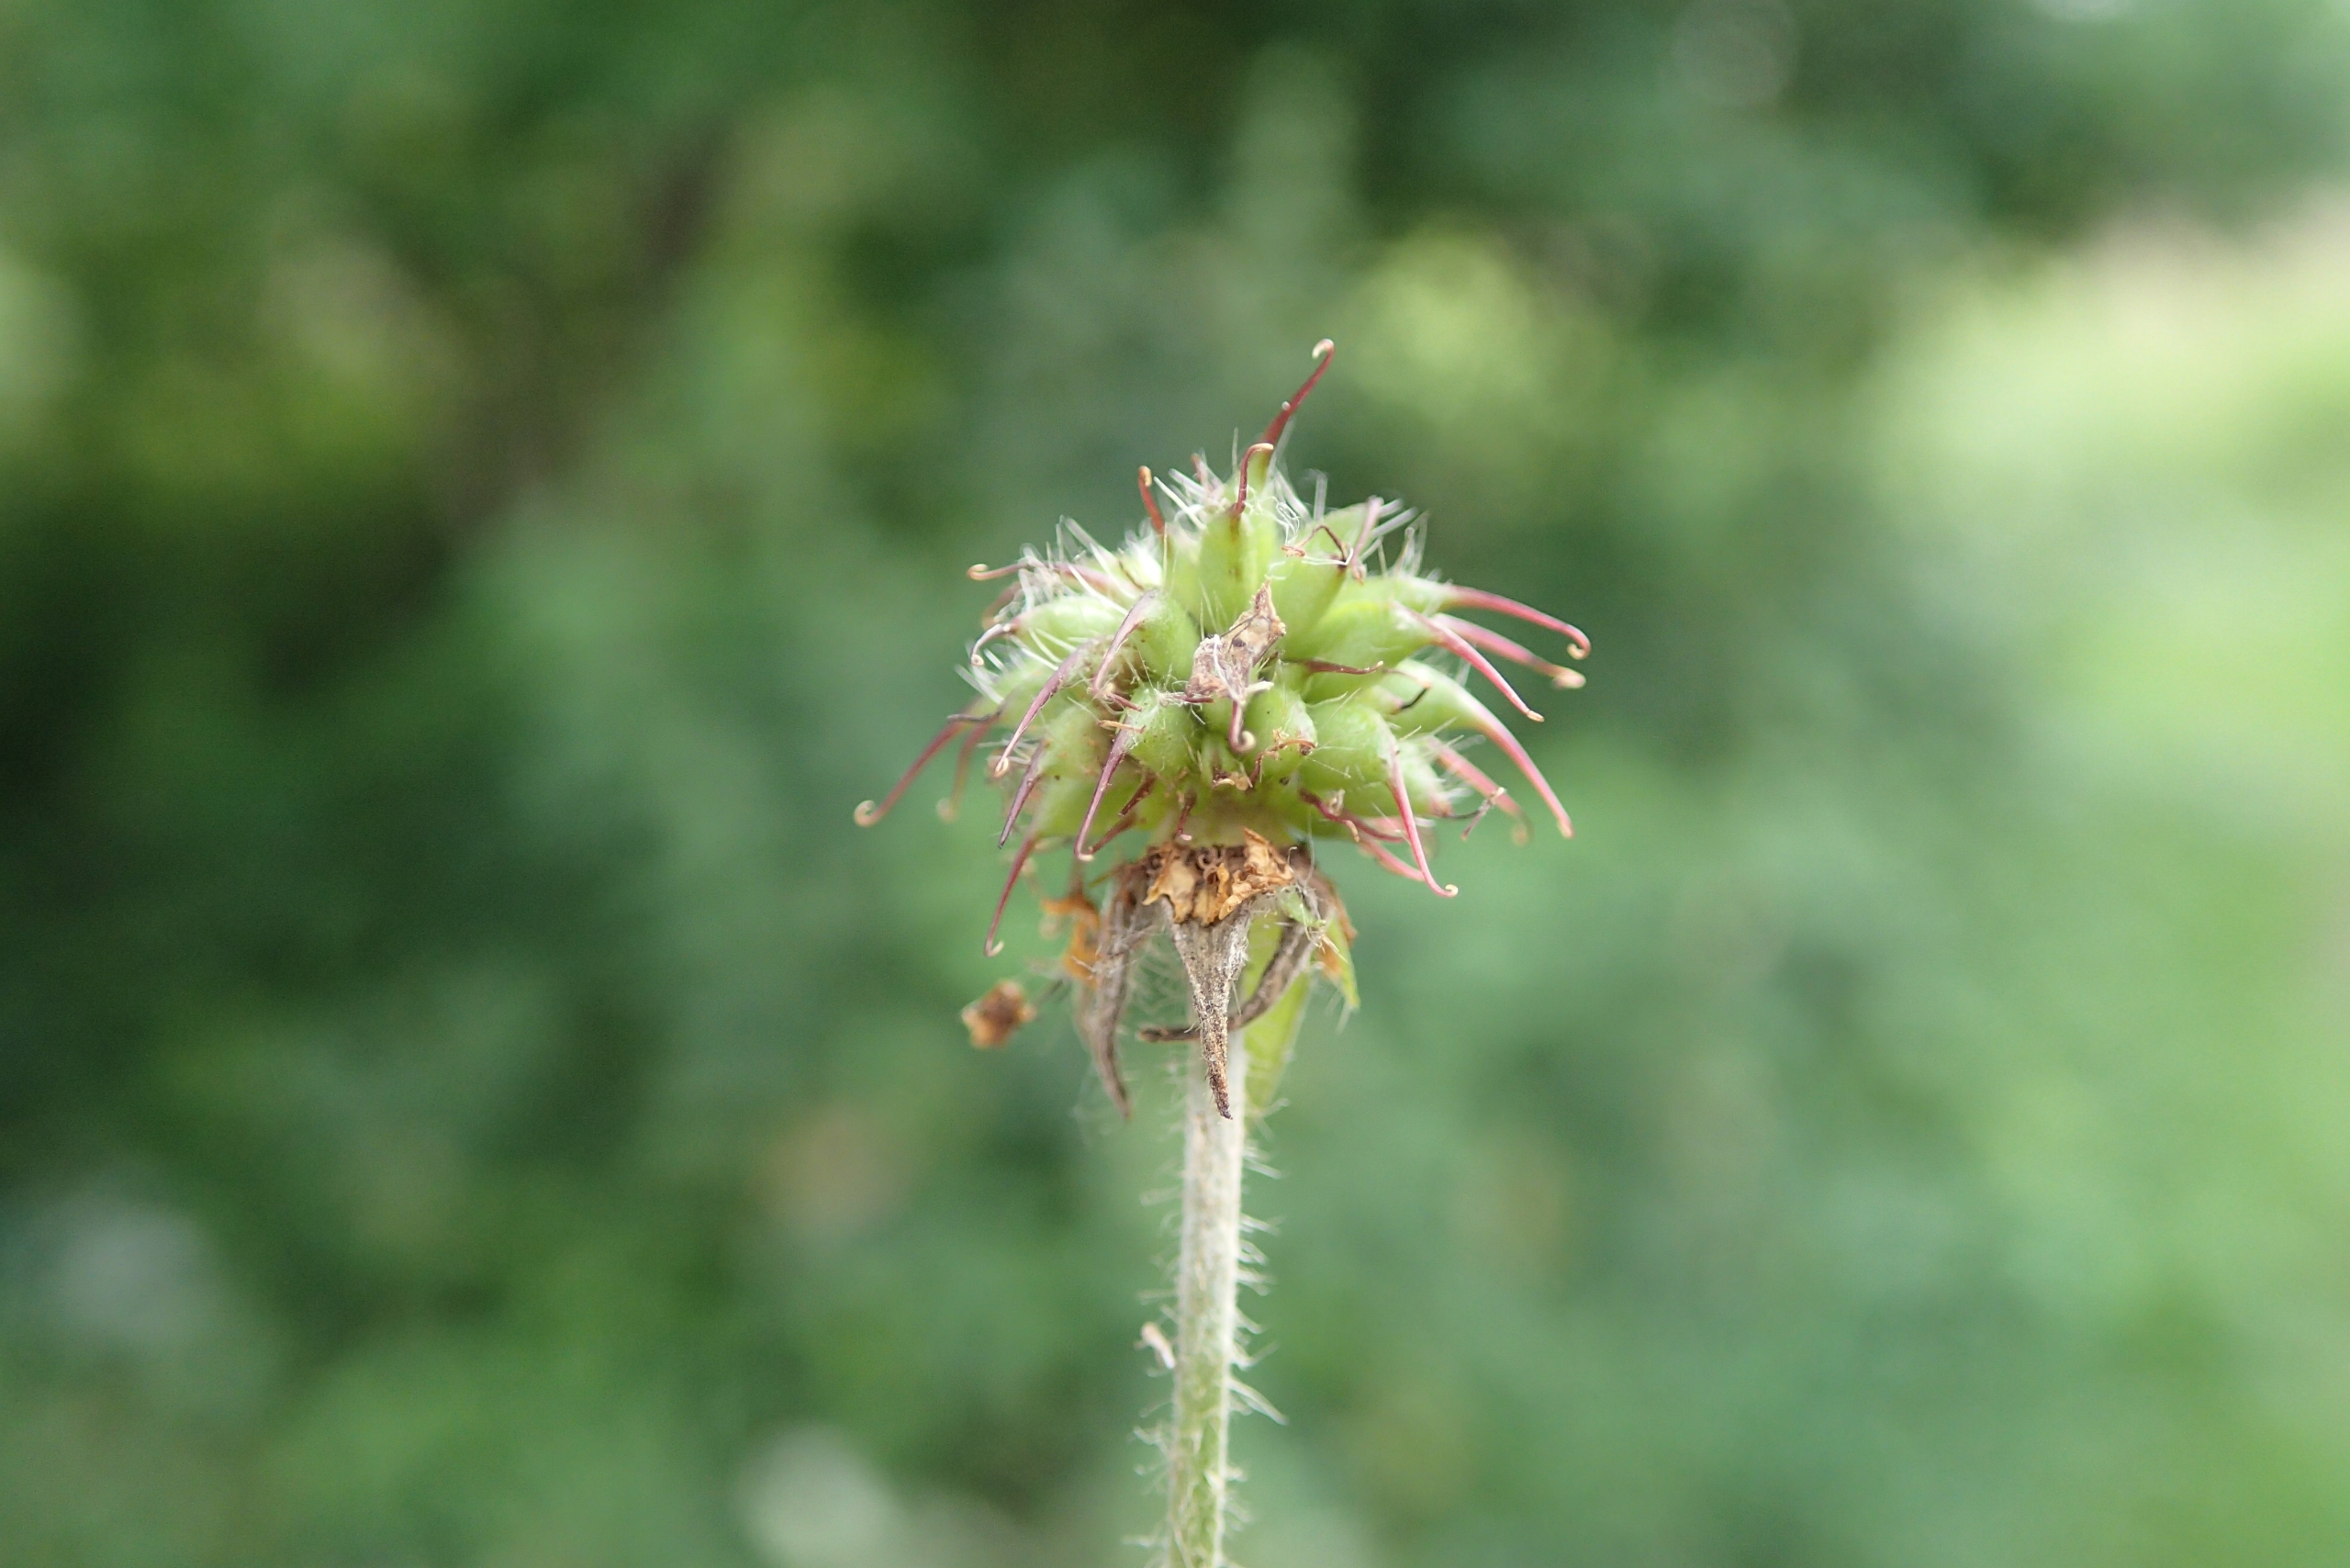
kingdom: Plantae
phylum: Tracheophyta
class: Magnoliopsida
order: Rosales
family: Rosaceae
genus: Geum
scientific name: Geum urbanum
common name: Feber-nellikerod
